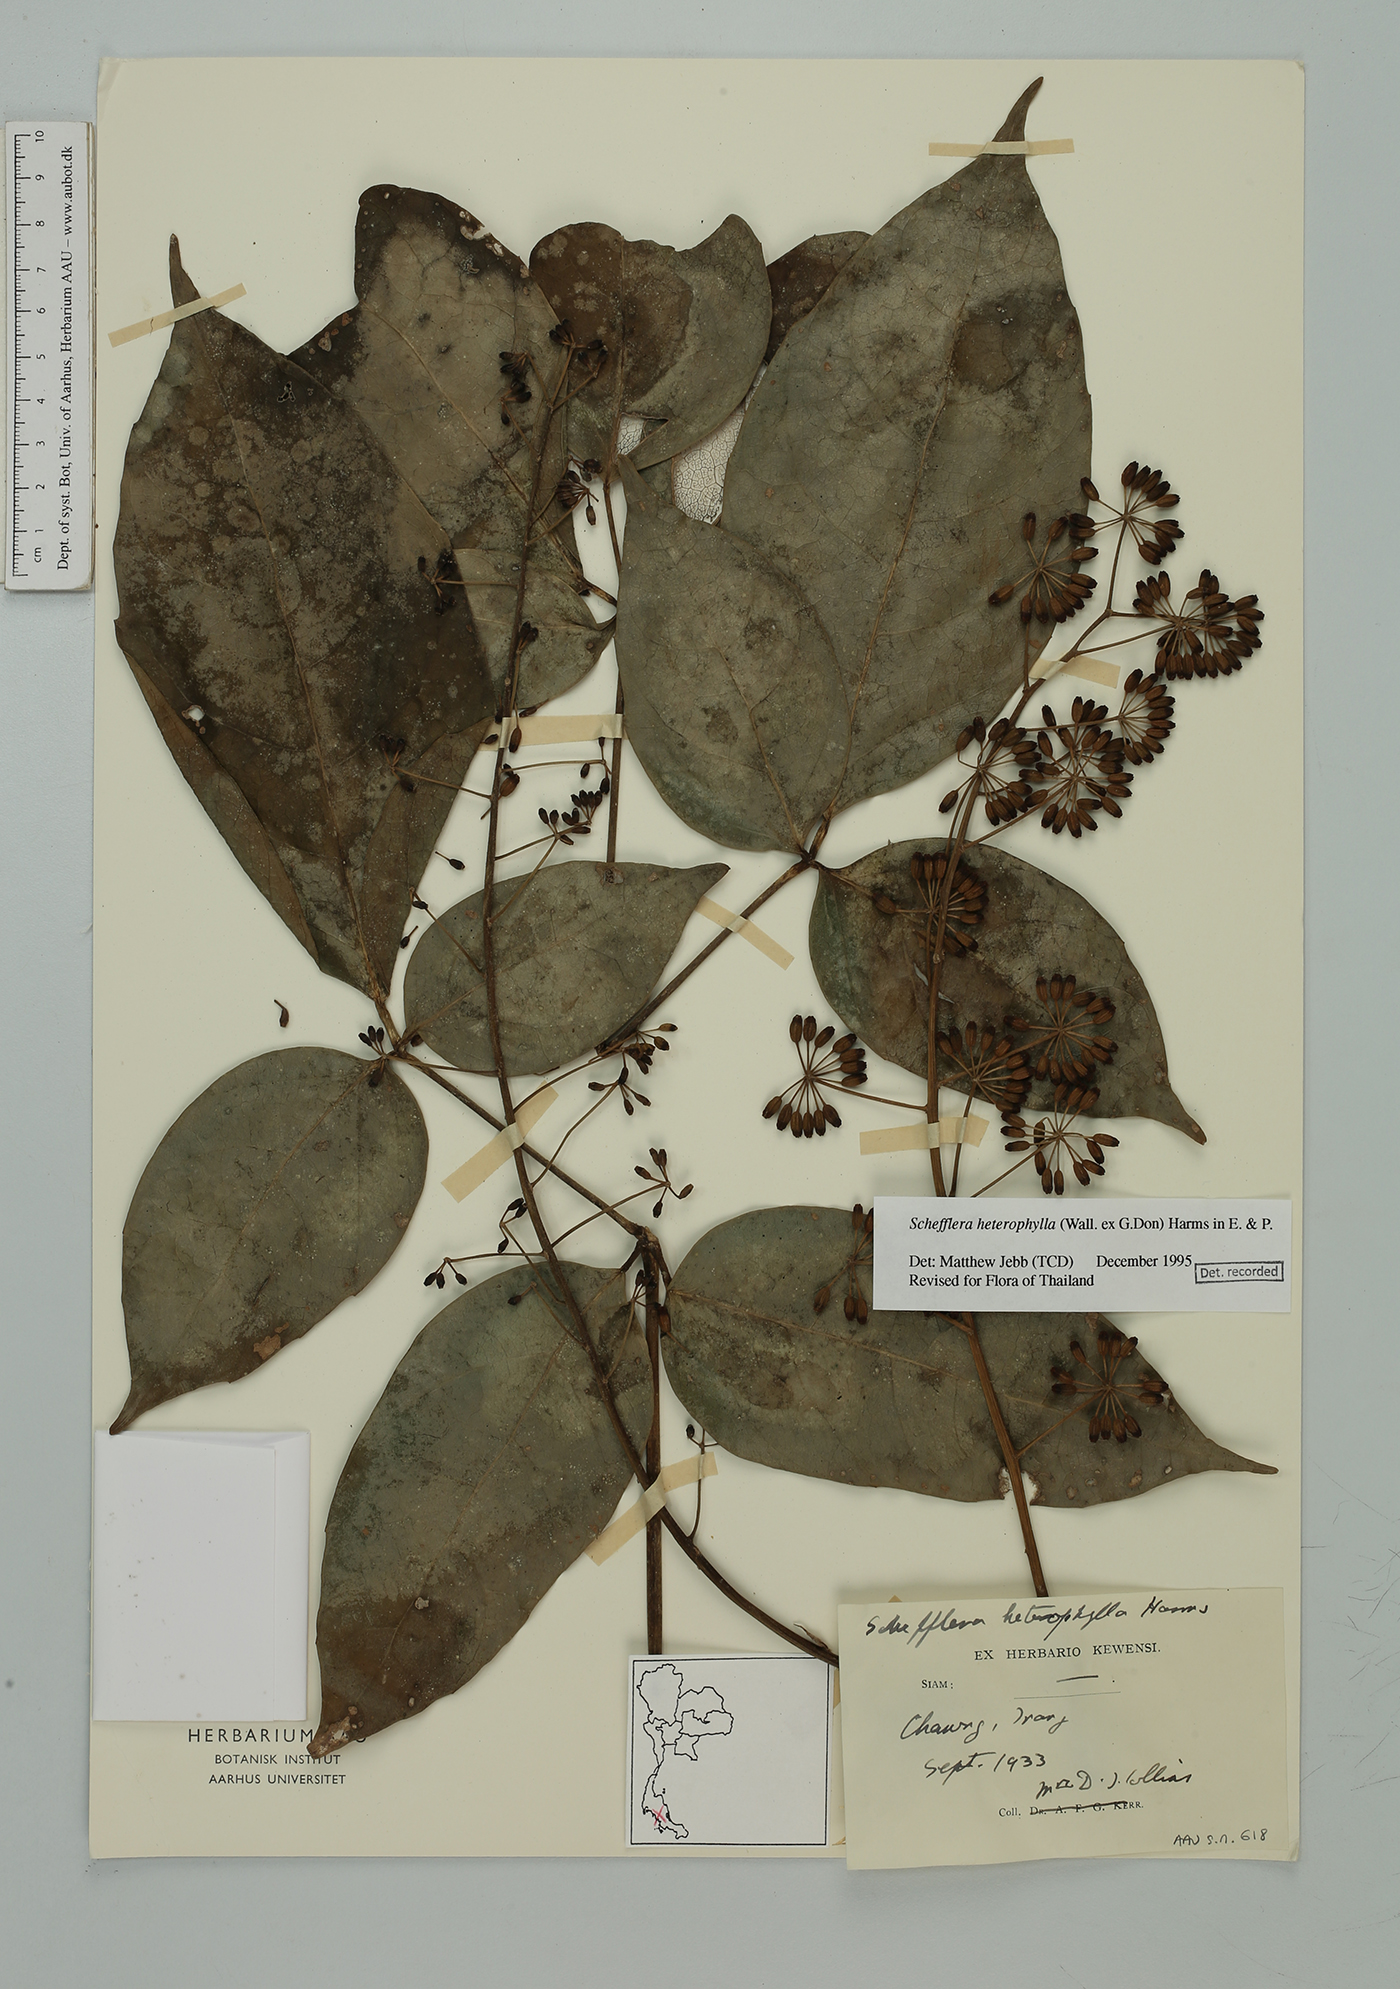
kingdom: Plantae
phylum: Tracheophyta
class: Magnoliopsida
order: Apiales
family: Araliaceae
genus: Heptapleurum
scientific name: Heptapleurum heterophyllum
